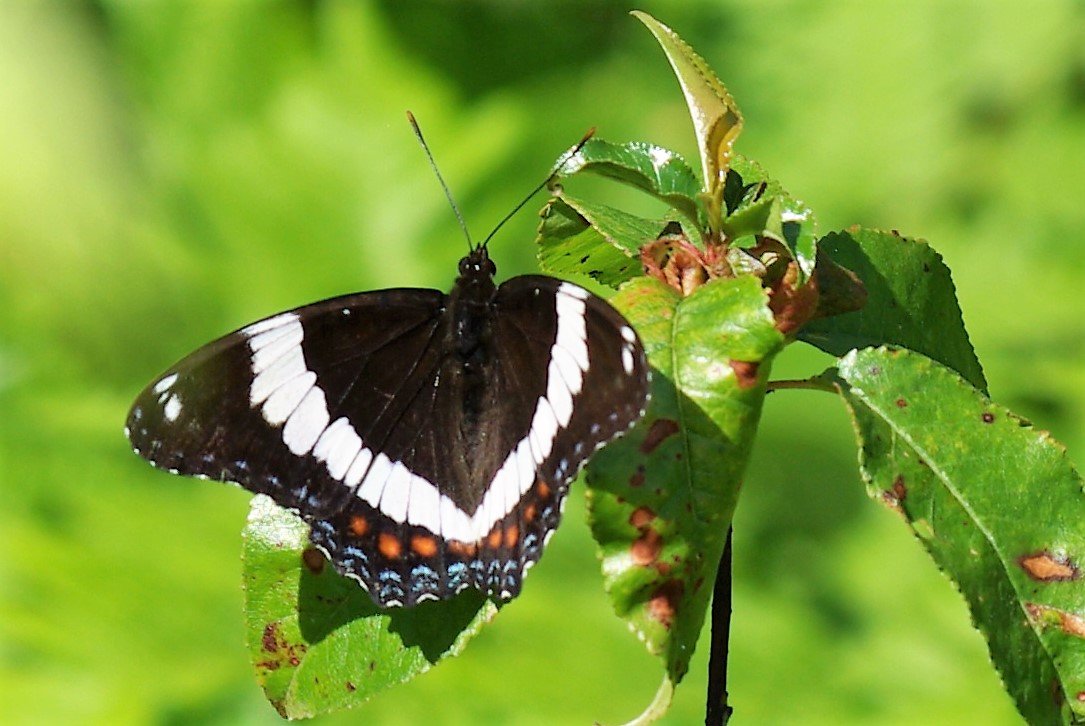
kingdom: Animalia
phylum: Arthropoda
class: Insecta
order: Lepidoptera
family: Nymphalidae
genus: Limenitis
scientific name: Limenitis arthemis
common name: Red-spotted Admiral
